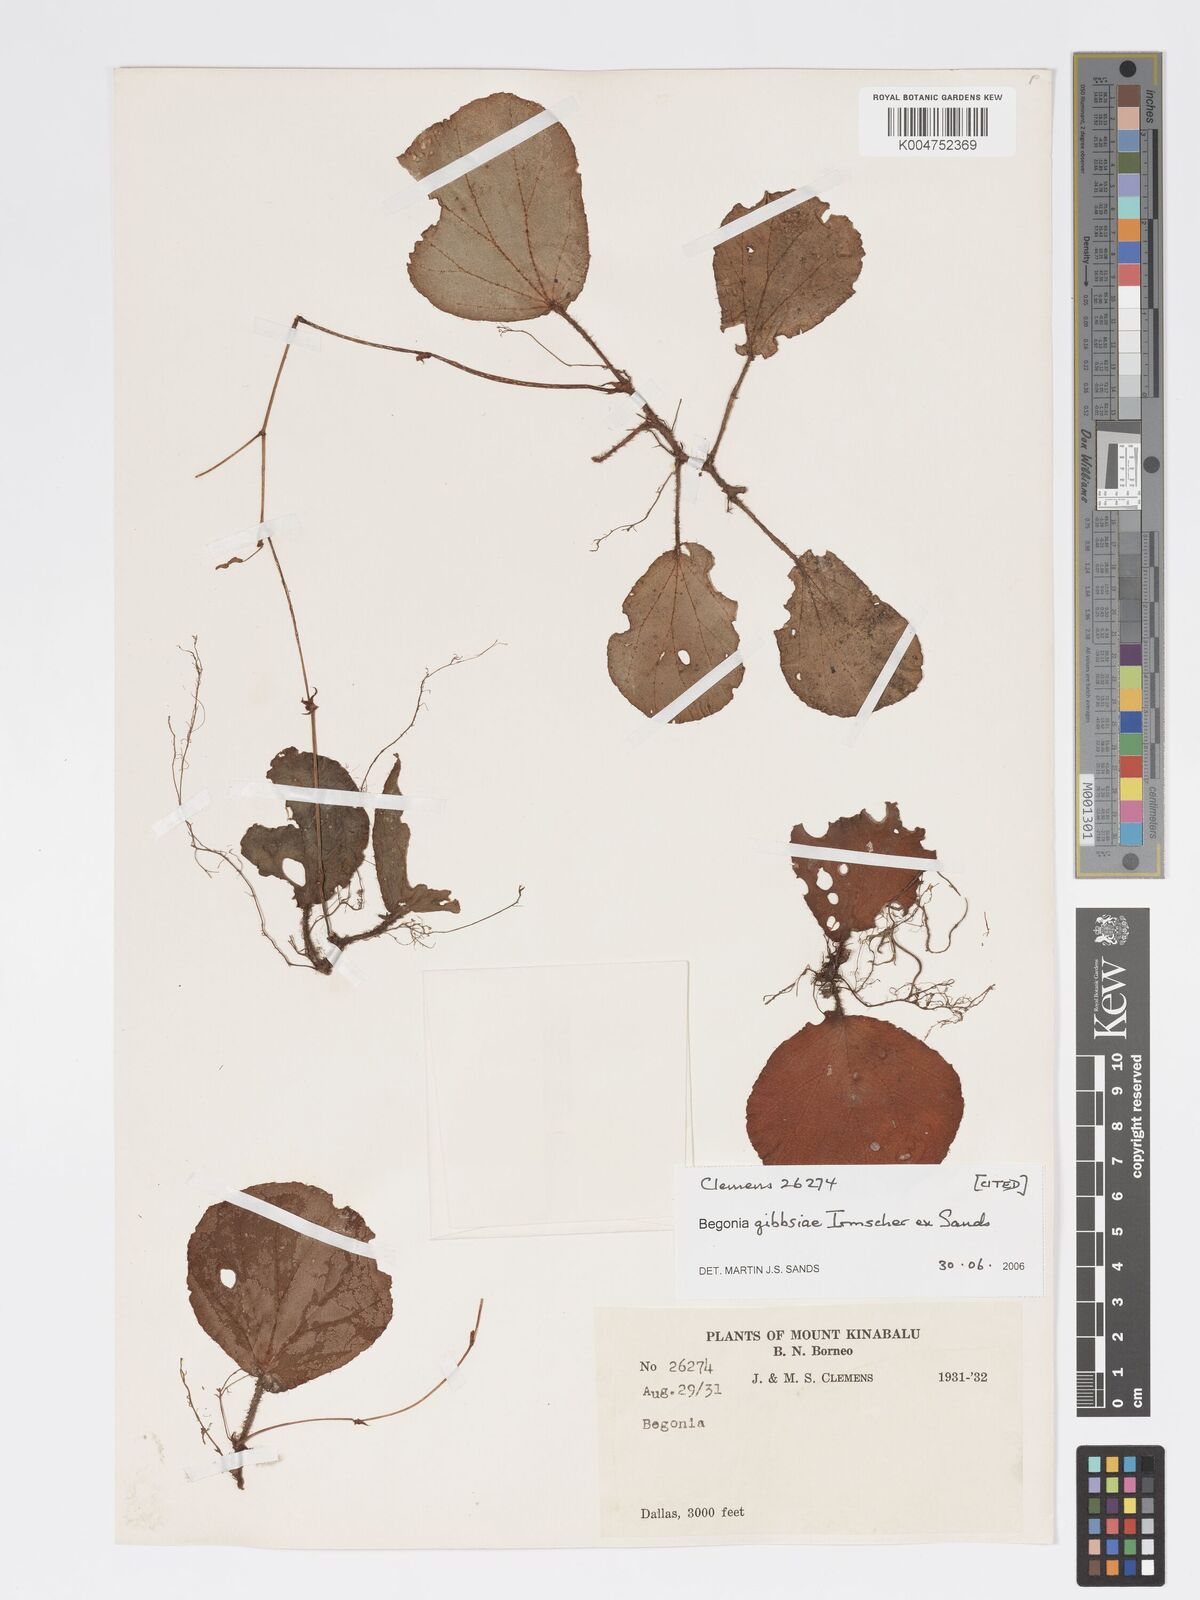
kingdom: Plantae
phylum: Tracheophyta
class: Magnoliopsida
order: Cucurbitales
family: Begoniaceae
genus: Begonia
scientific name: Begonia gibbsiae
